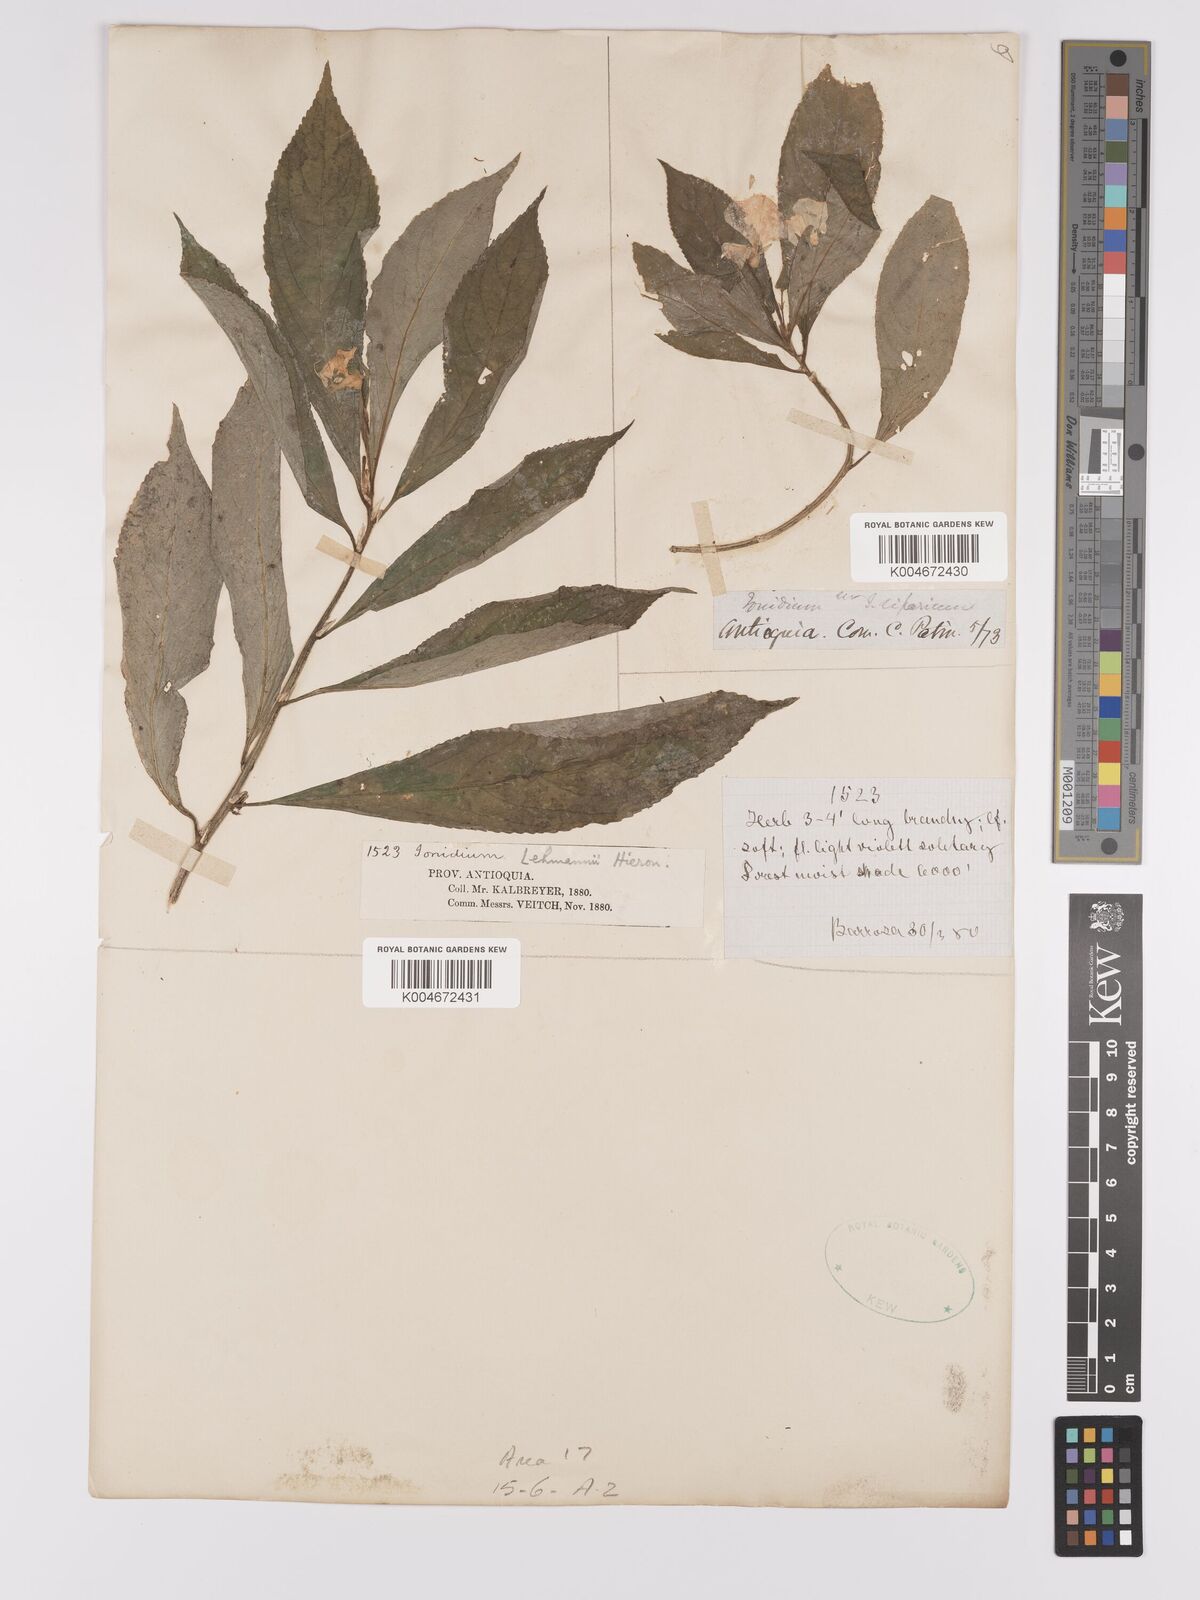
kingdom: Plantae
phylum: Tracheophyta
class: Magnoliopsida
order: Malpighiales
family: Violaceae
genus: Pombalia
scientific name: Pombalia lehmannii
